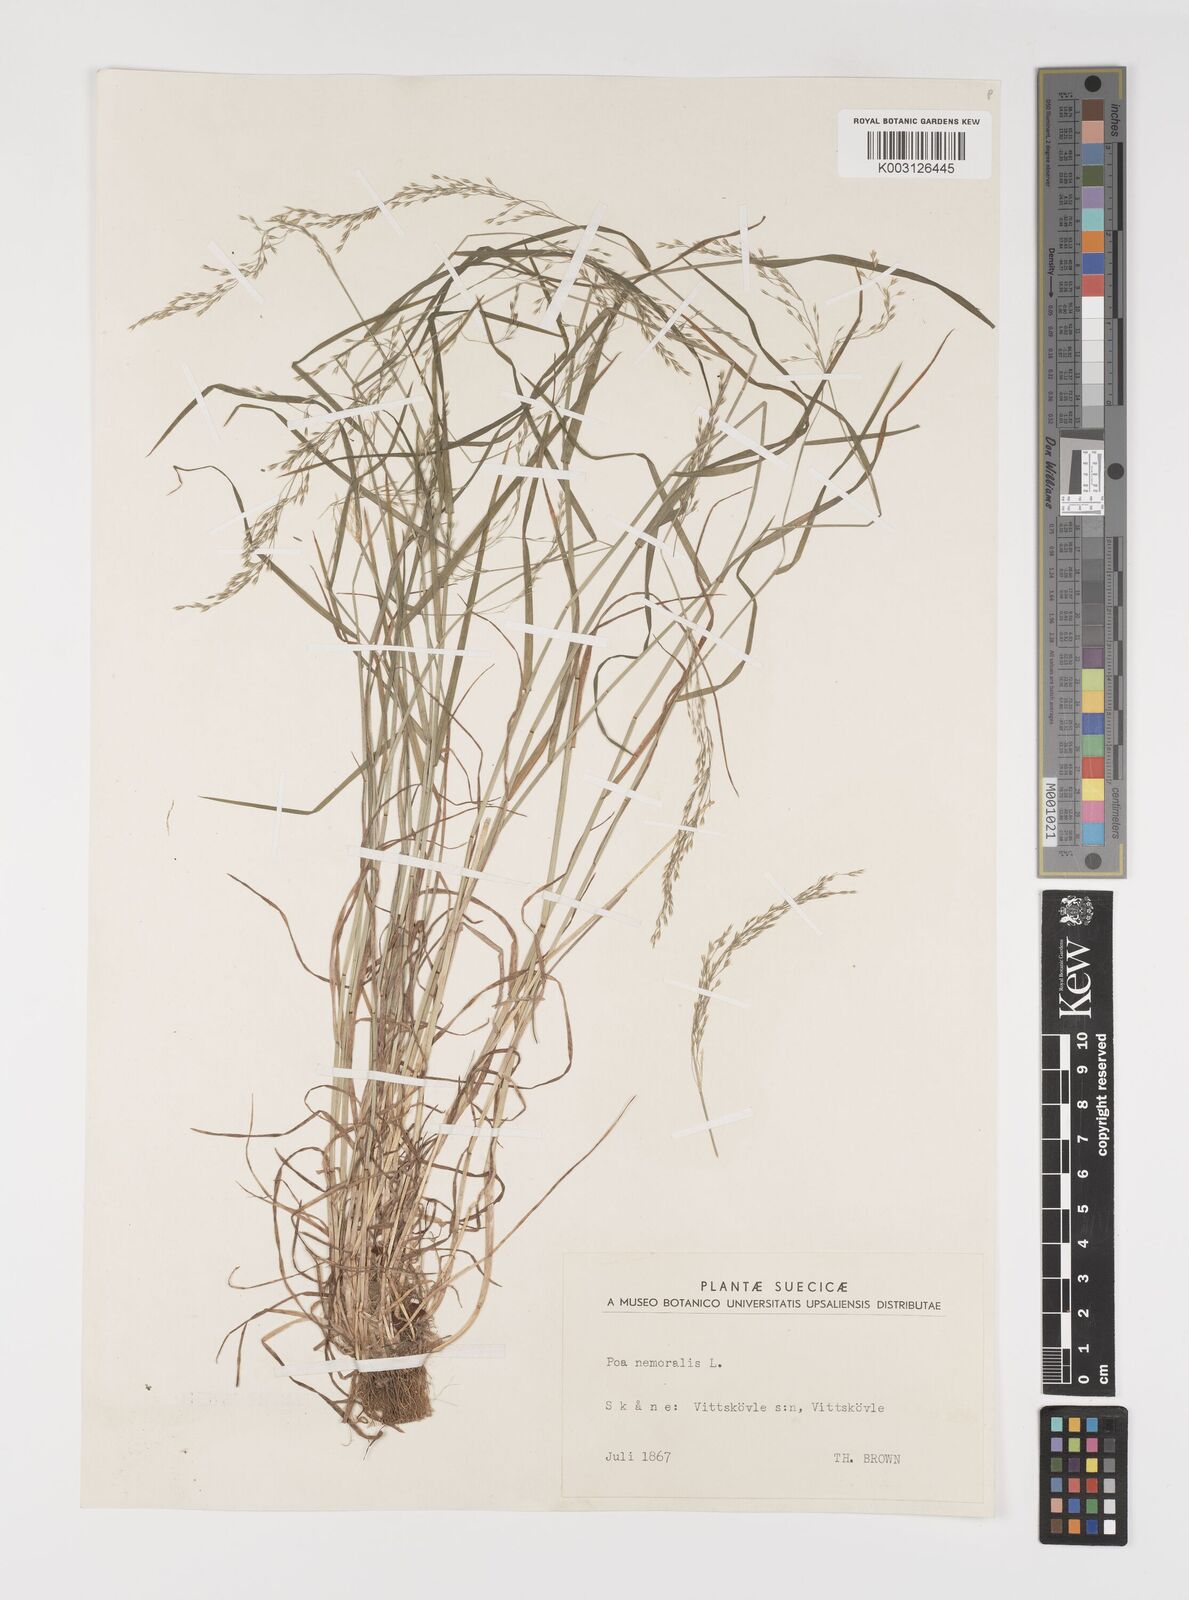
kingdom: Plantae
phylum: Tracheophyta
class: Liliopsida
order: Poales
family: Poaceae
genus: Poa
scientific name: Poa nemoralis
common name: Wood bluegrass
